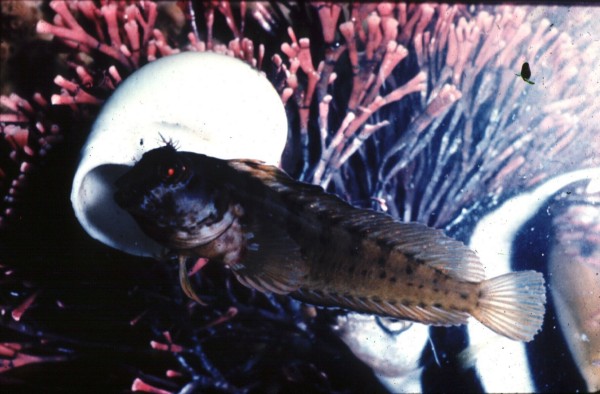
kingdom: Animalia
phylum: Chordata
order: Perciformes
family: Blenniidae
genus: Parablennius
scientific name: Parablennius pilicornis
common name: Ringneck blenny
